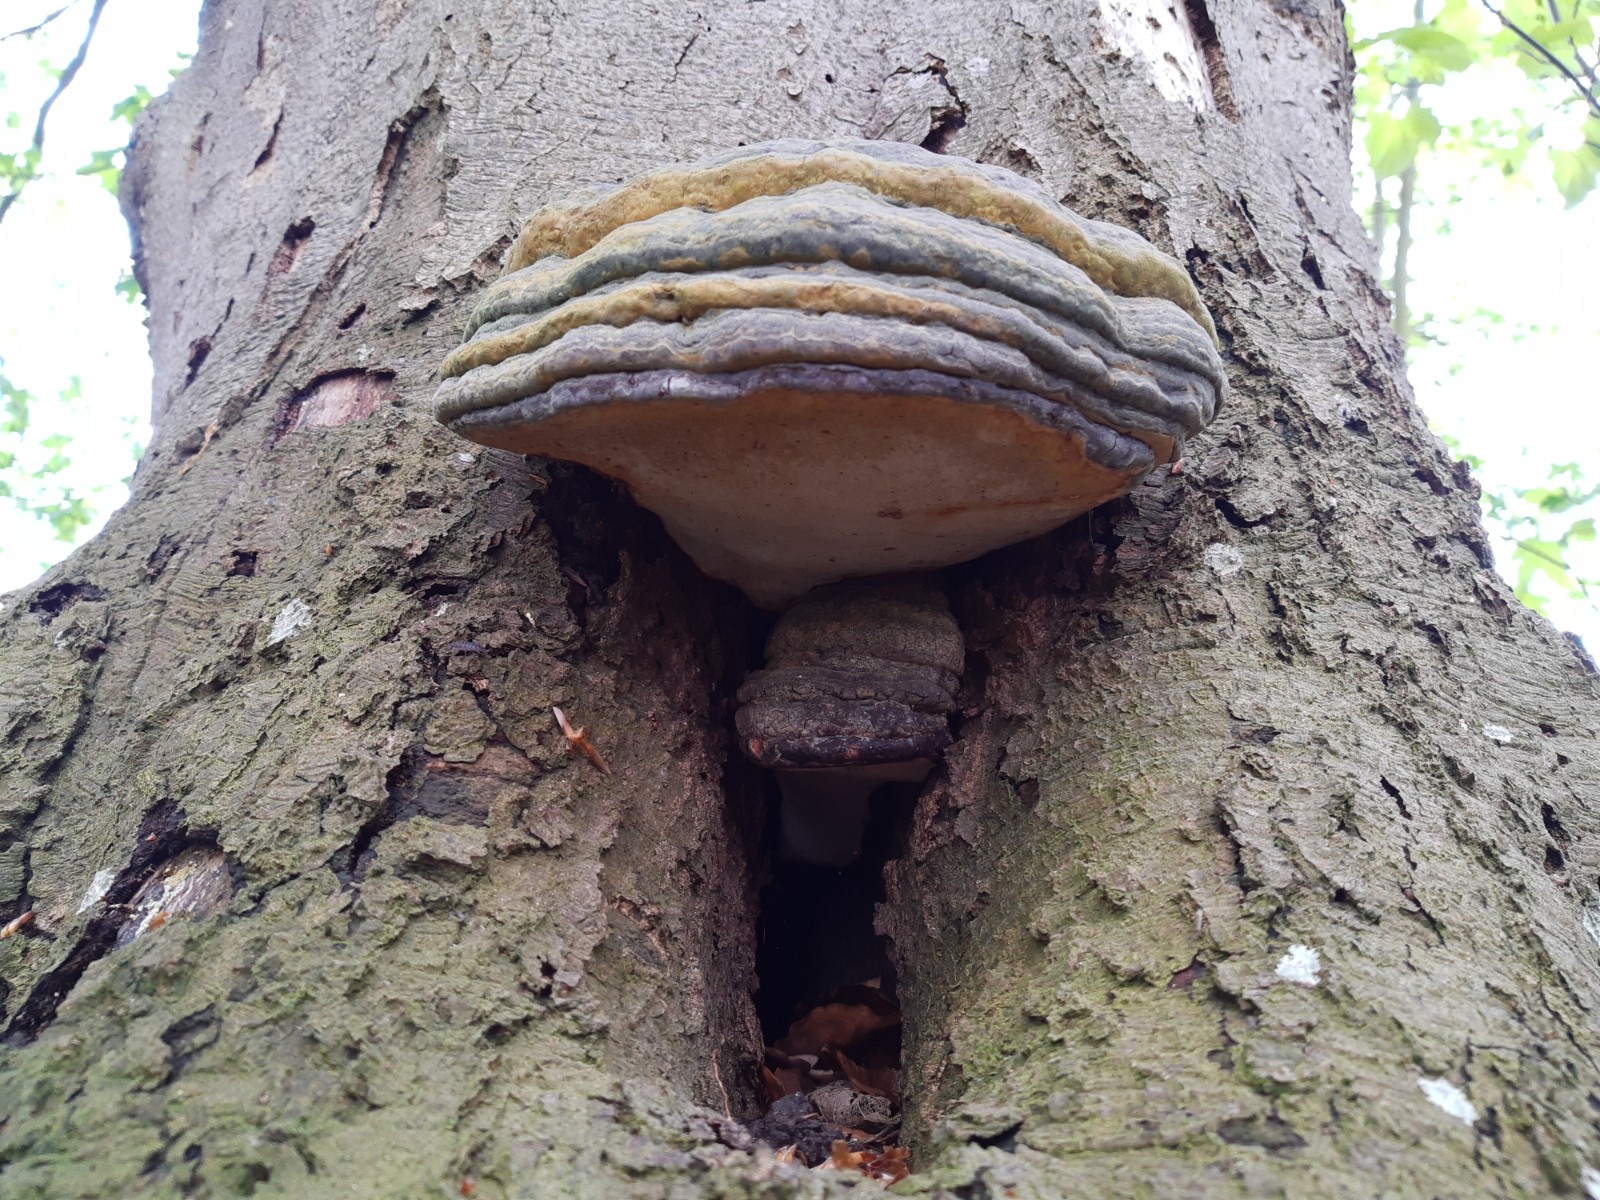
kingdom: Fungi
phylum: Basidiomycota
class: Agaricomycetes
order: Polyporales
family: Polyporaceae
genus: Ganoderma
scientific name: Ganoderma pfeifferi
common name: kobberrød lakporesvamp
